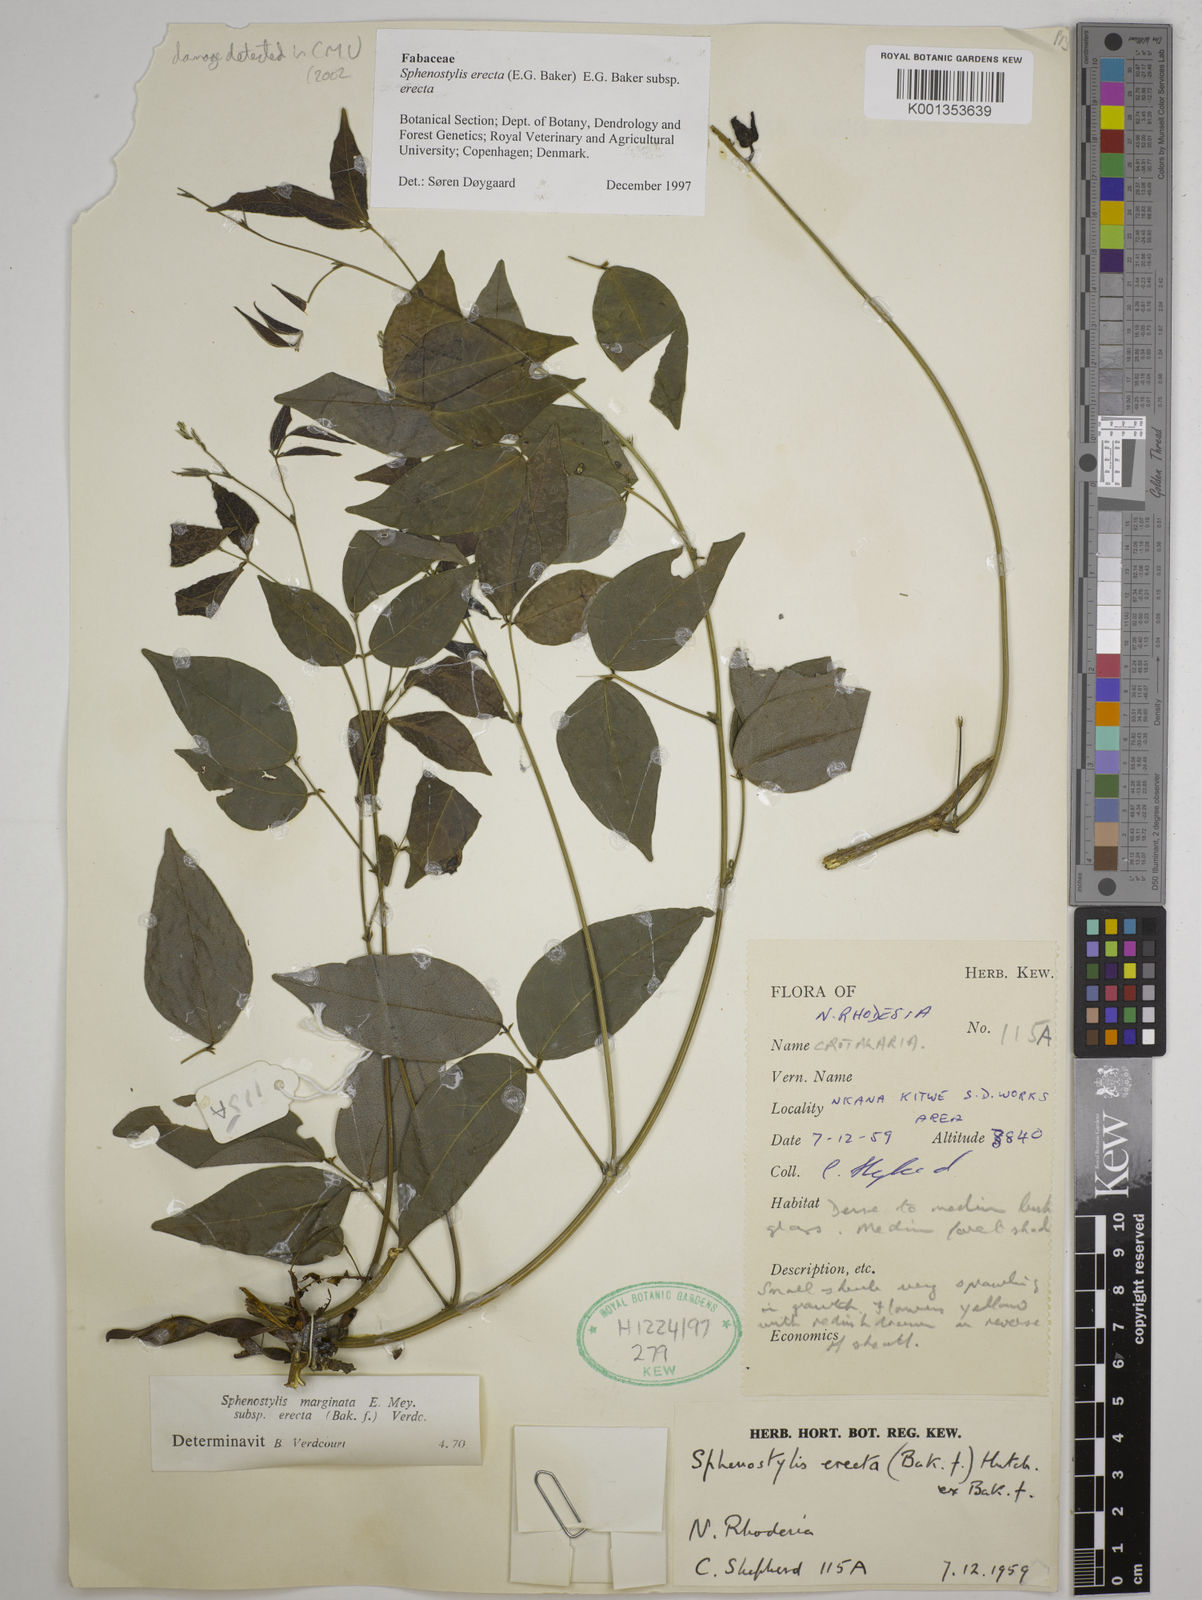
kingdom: Plantae
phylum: Tracheophyta
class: Magnoliopsida
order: Fabales
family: Fabaceae
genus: Sphenostylis
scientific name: Sphenostylis erecta
